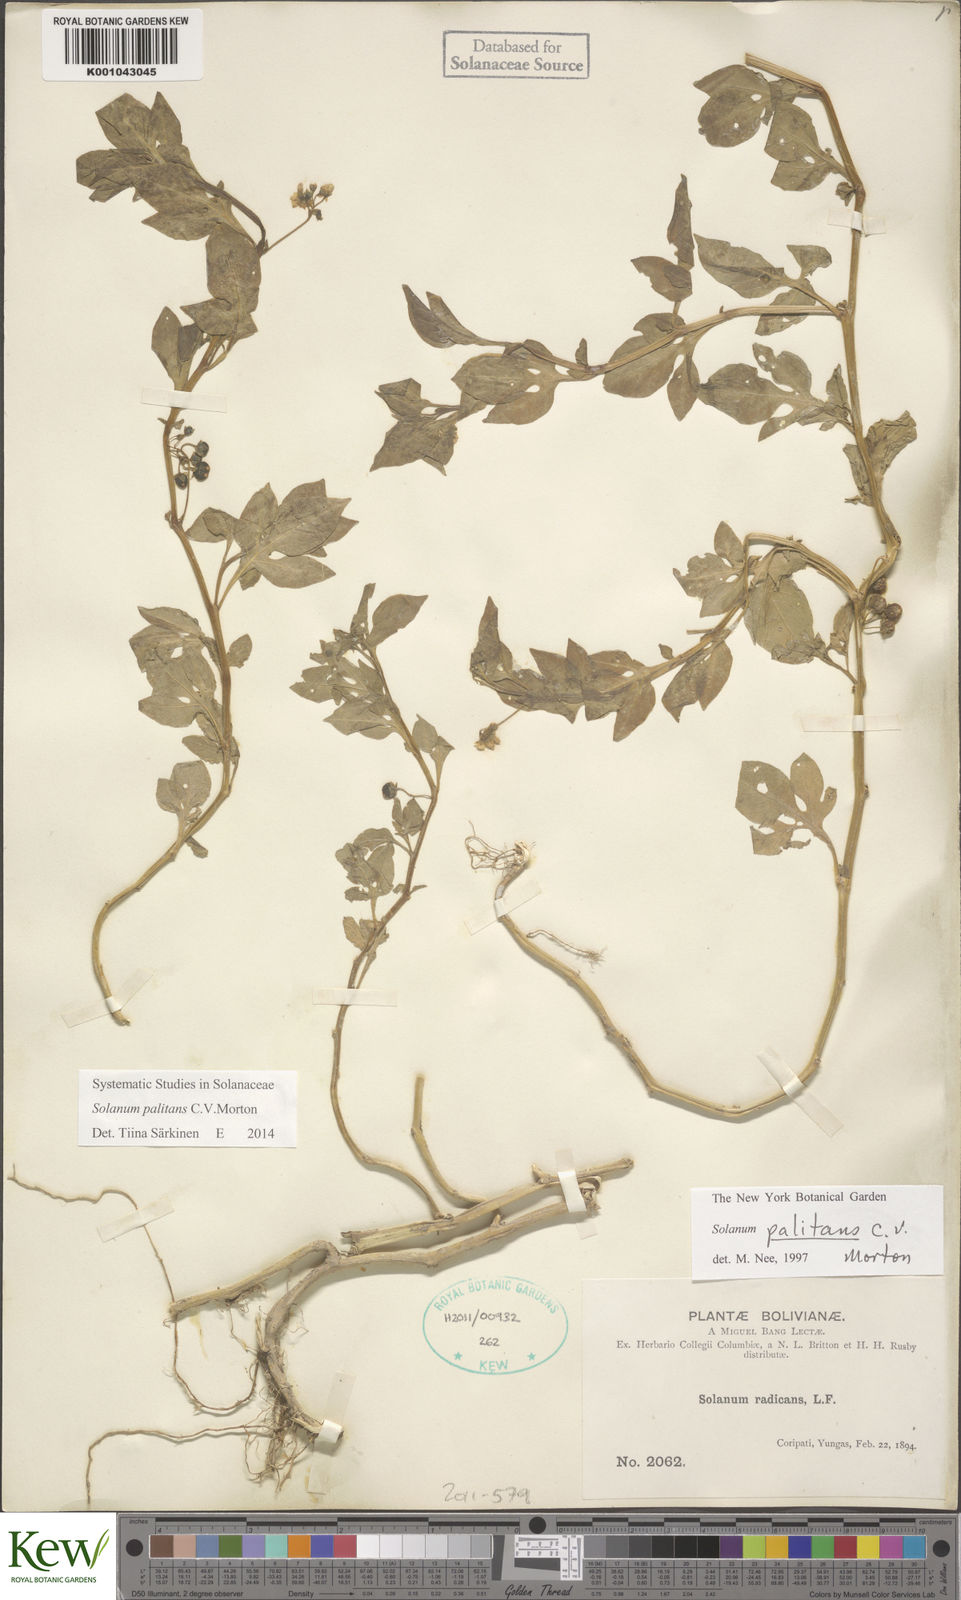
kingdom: Plantae
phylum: Tracheophyta
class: Magnoliopsida
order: Solanales
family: Solanaceae
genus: Solanum
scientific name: Solanum tripartitum
